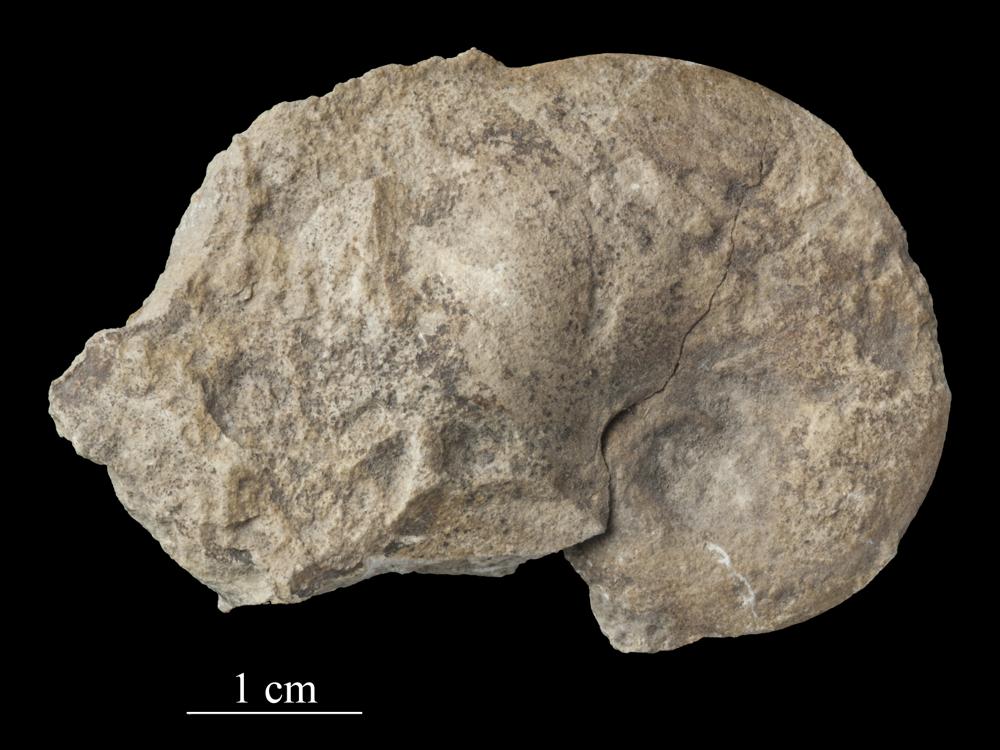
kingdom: Animalia
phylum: Mollusca
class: Gastropoda
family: Bellerophontidae
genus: Bellerophon
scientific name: Bellerophon
